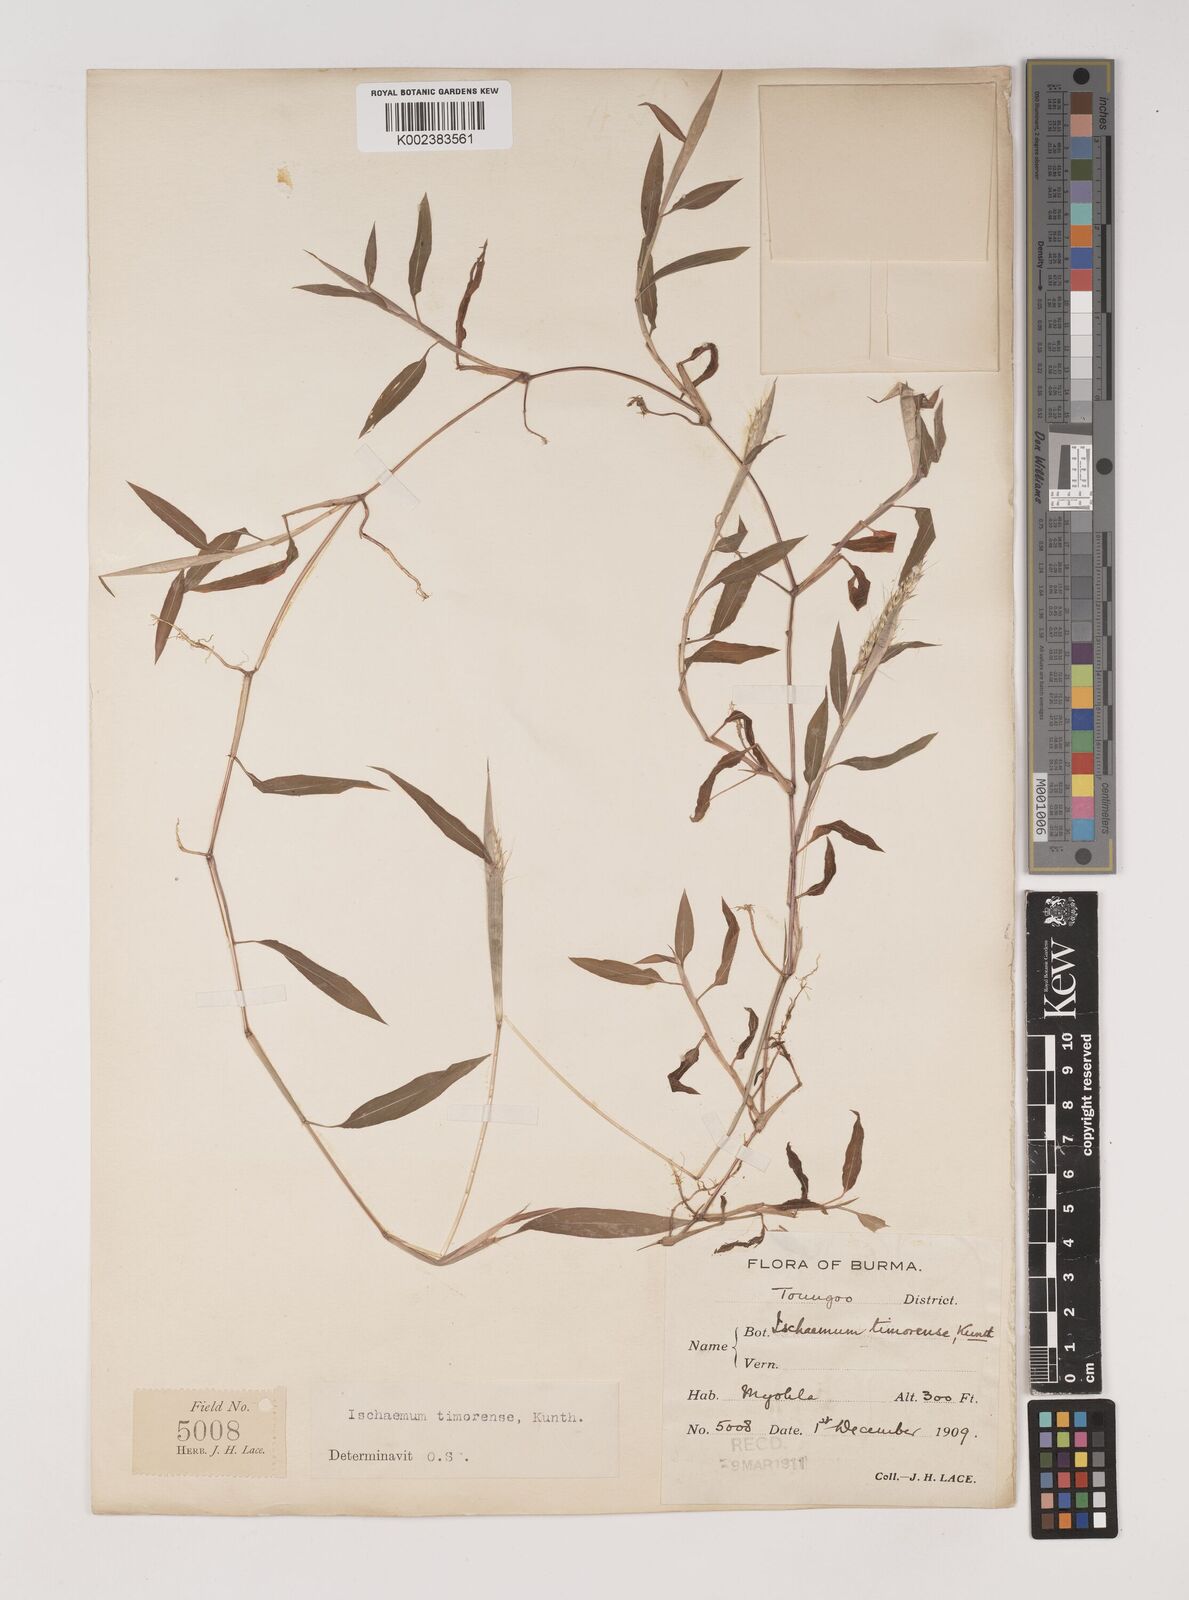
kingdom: Plantae
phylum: Tracheophyta
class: Liliopsida
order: Poales
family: Poaceae
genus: Ischaemum
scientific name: Ischaemum timorense
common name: Stalkleaf murainagrass
